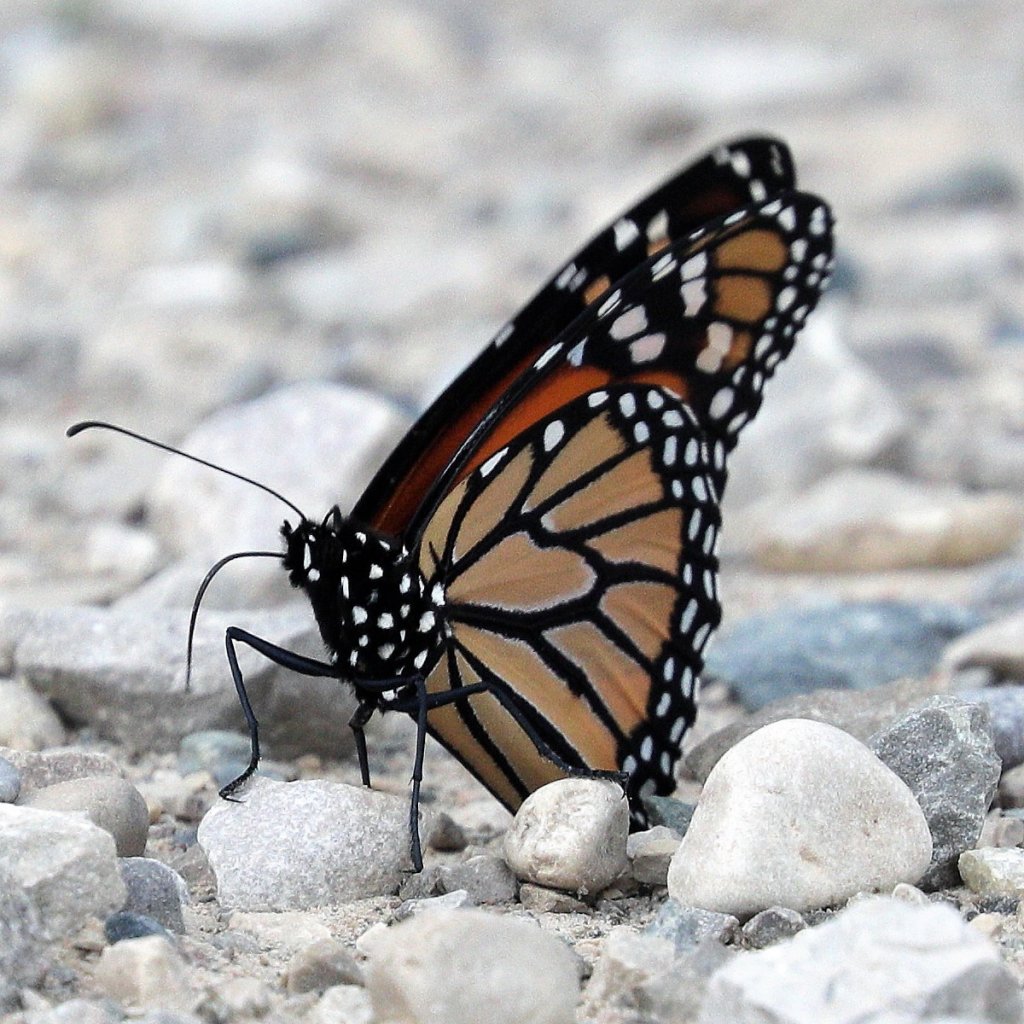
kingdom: Animalia
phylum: Arthropoda
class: Insecta
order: Lepidoptera
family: Nymphalidae
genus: Danaus
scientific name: Danaus plexippus
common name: Monarch
